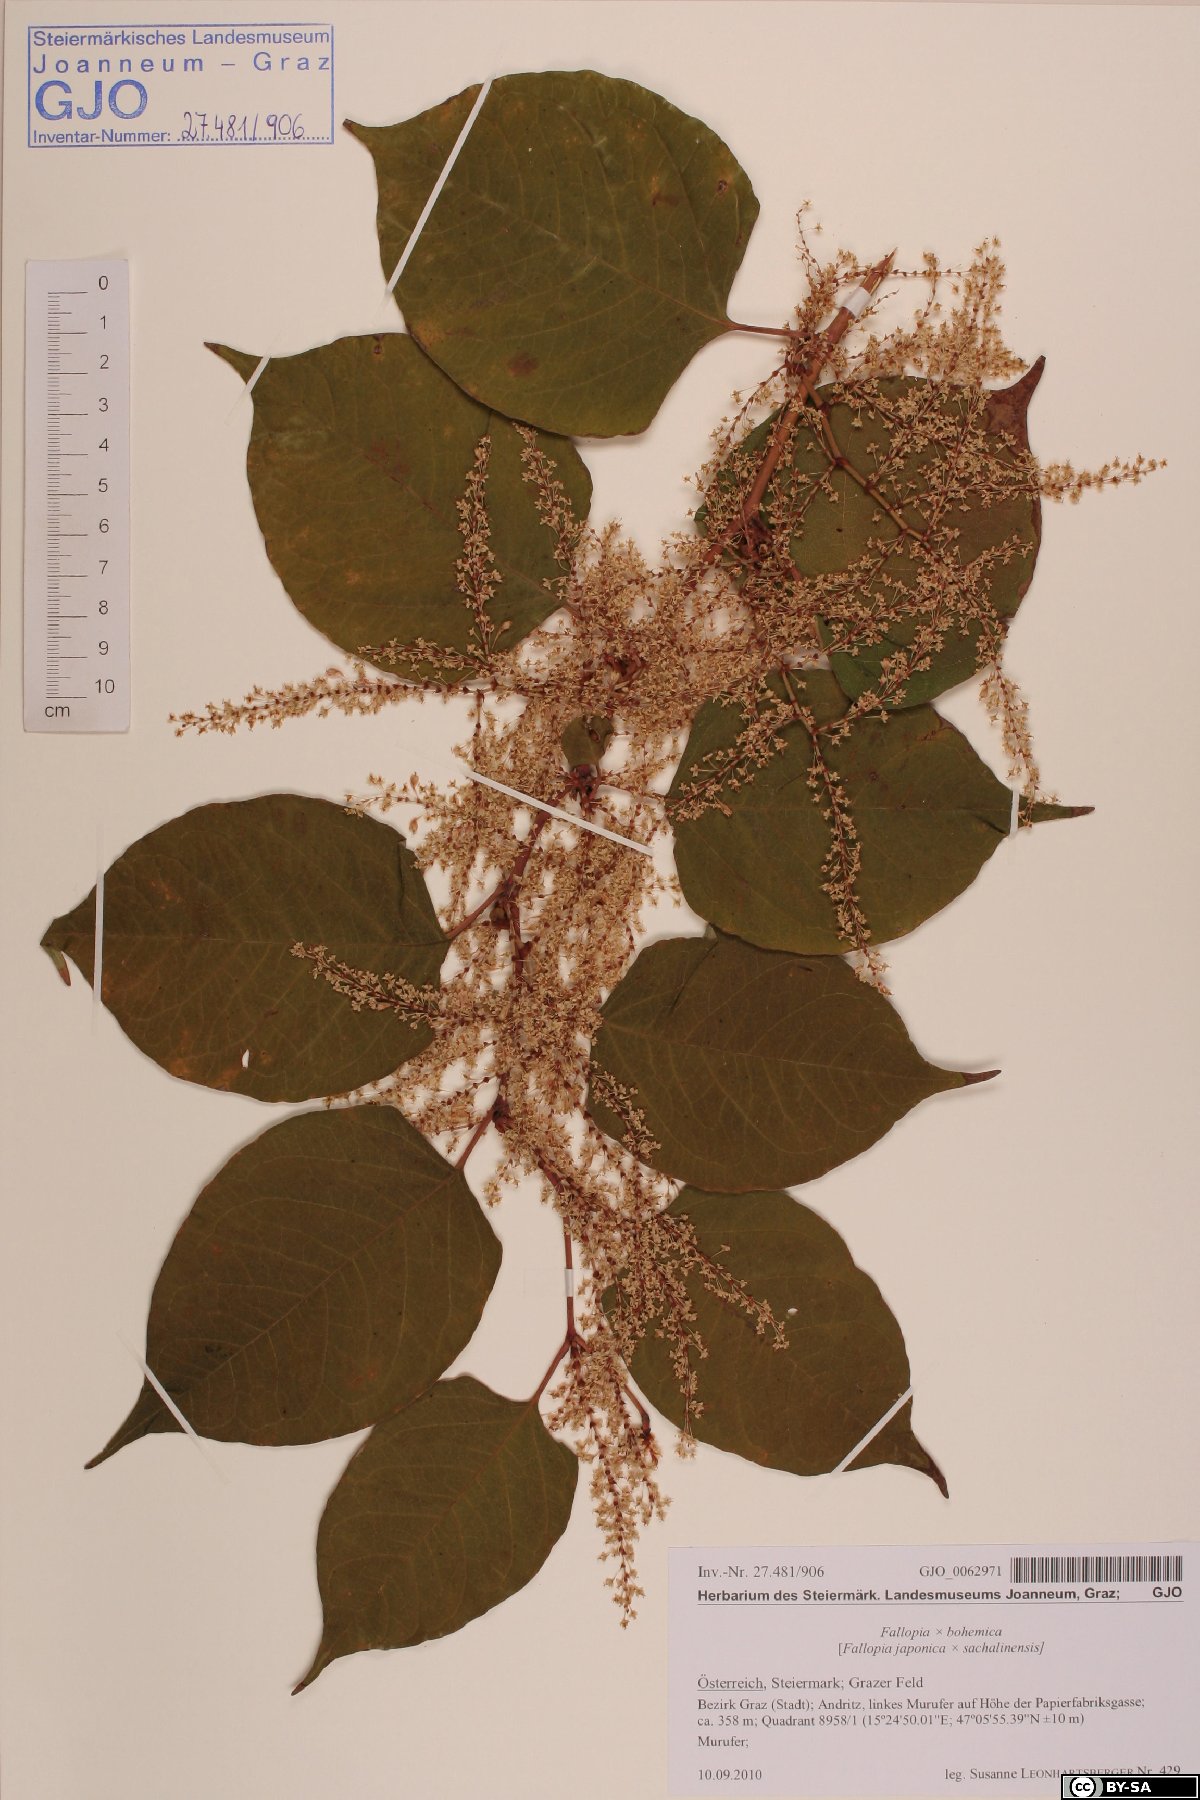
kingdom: Plantae
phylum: Tracheophyta
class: Magnoliopsida
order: Caryophyllales
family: Polygonaceae
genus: Reynoutria
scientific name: Reynoutria bohemica
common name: Bohemian knotweed
